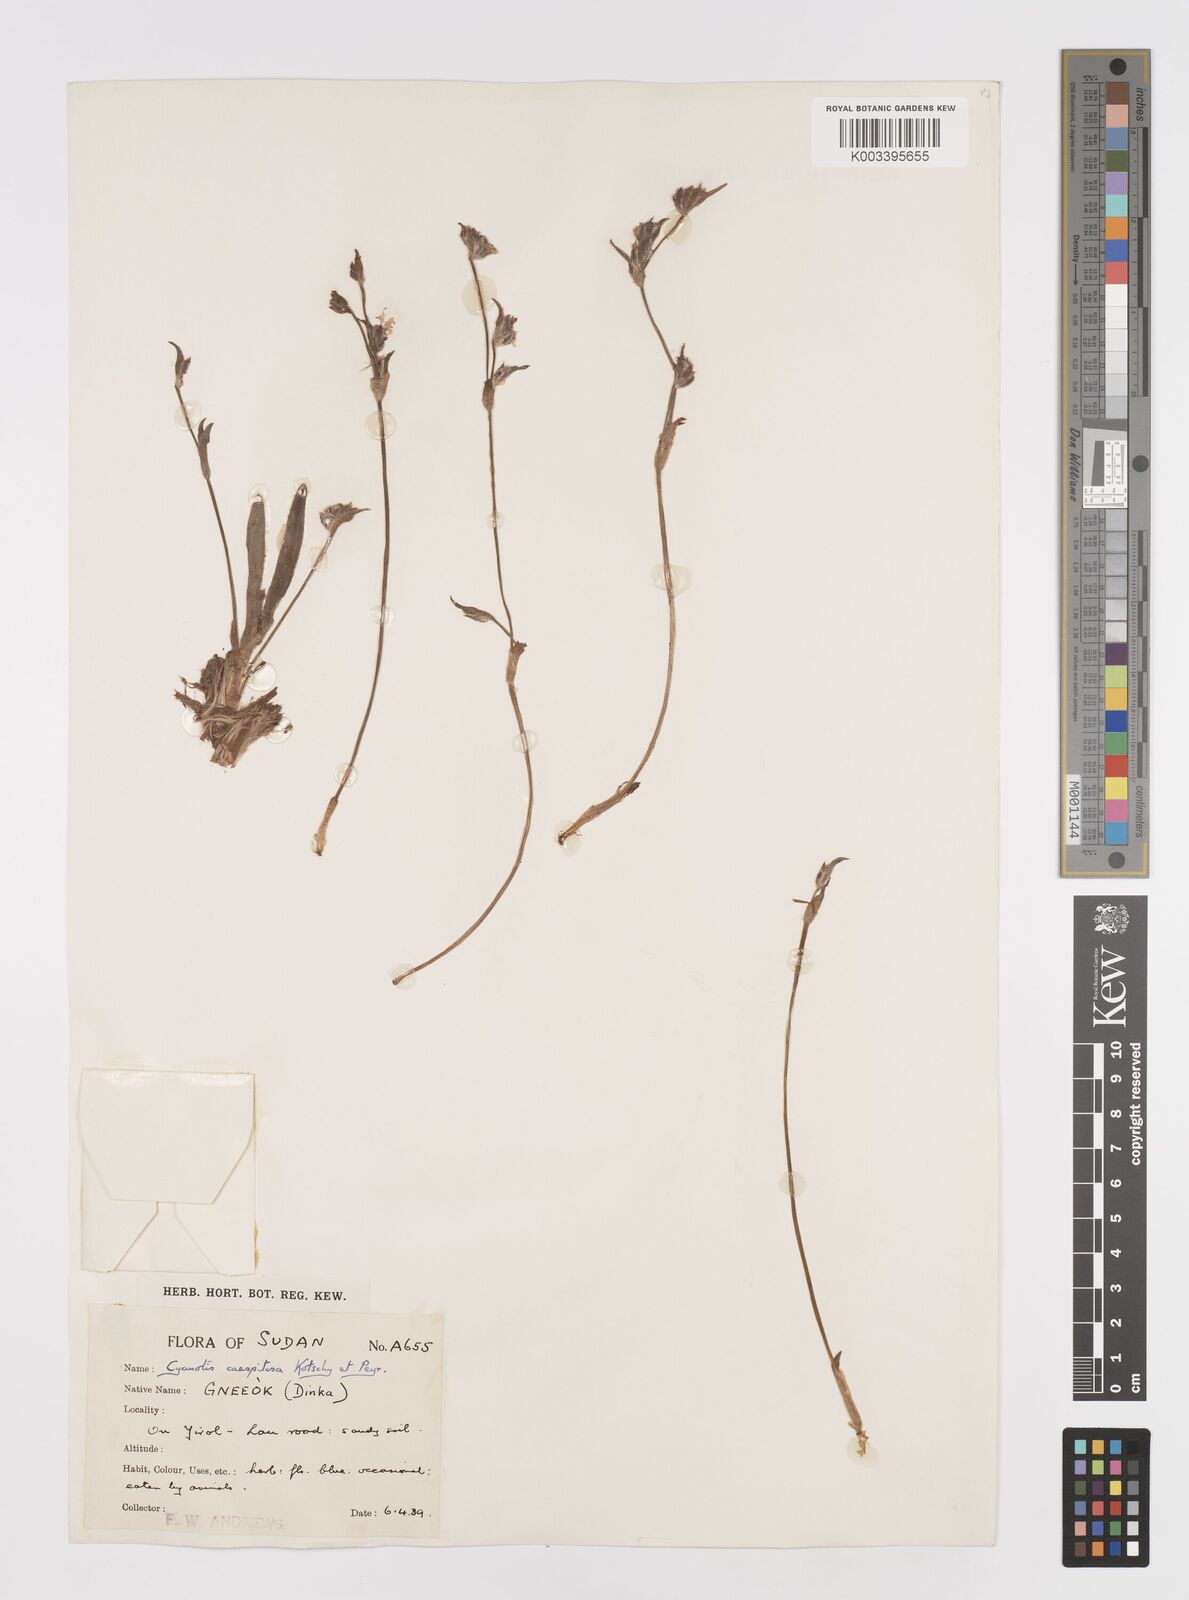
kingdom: Plantae
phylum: Tracheophyta
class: Liliopsida
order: Commelinales
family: Commelinaceae
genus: Cyanotis
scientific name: Cyanotis caespitosa
